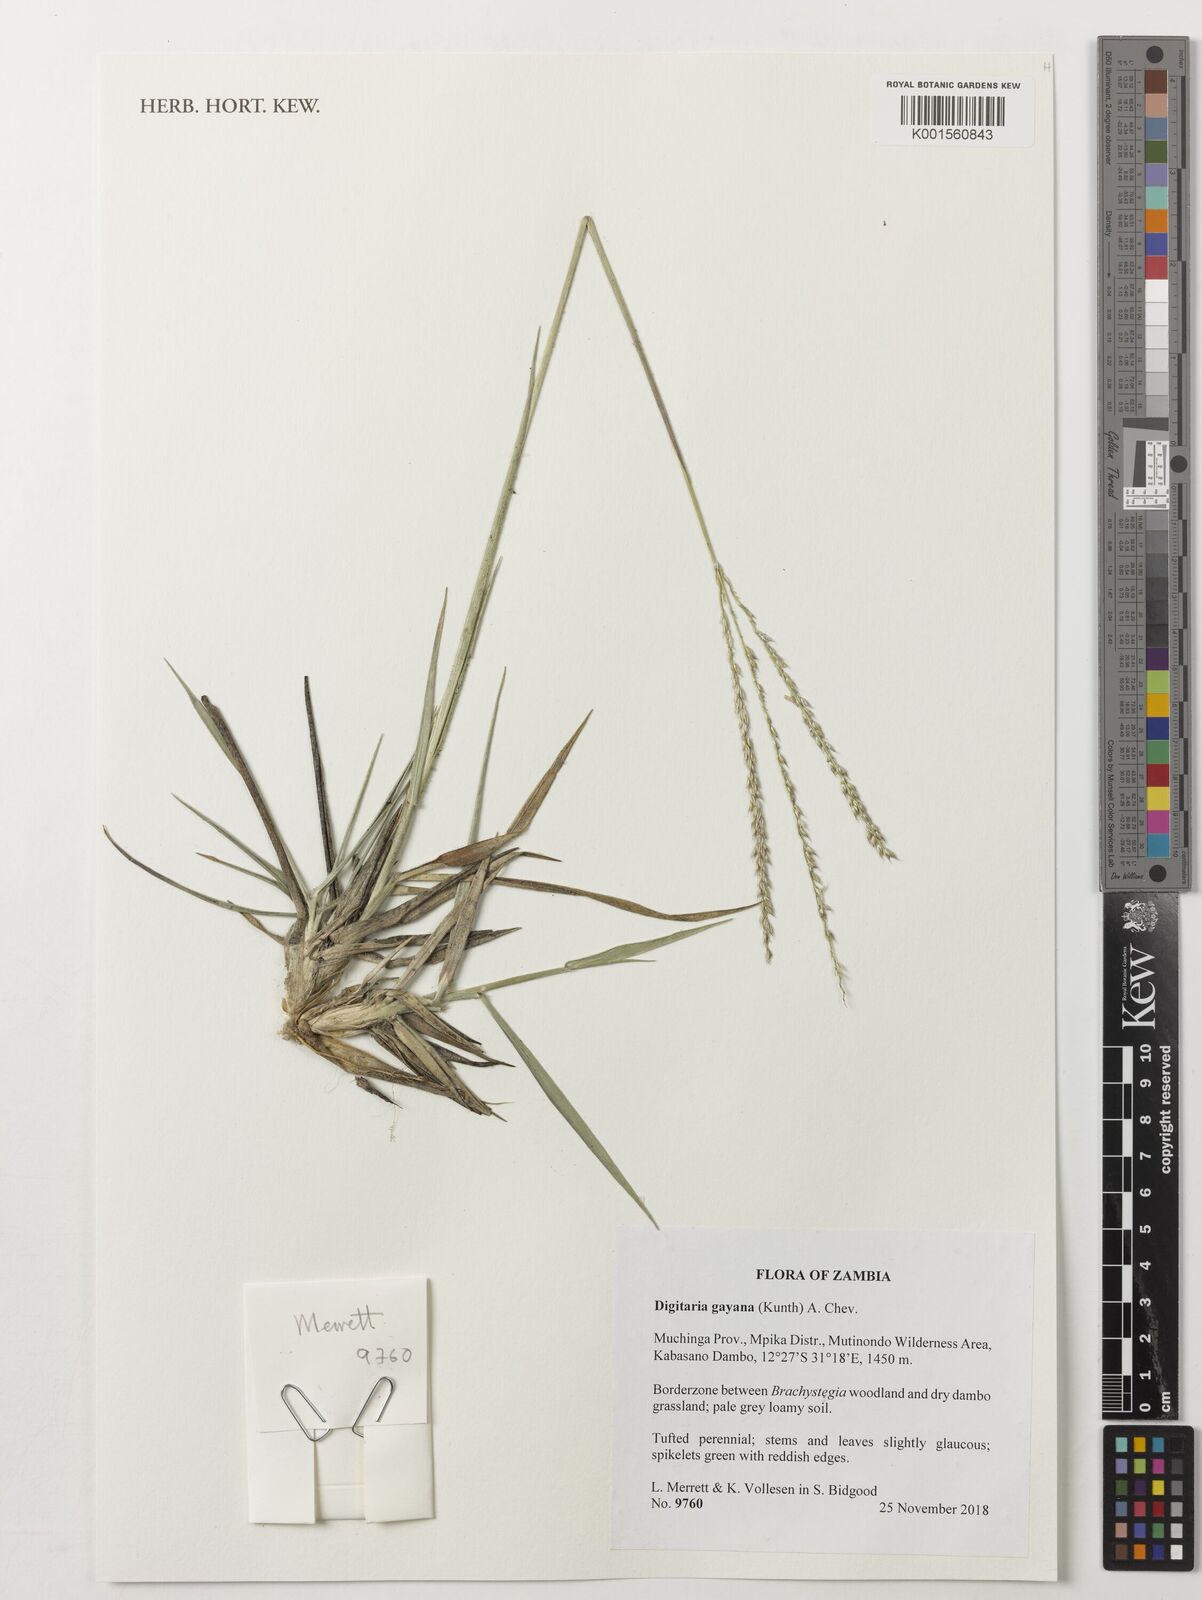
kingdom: Plantae
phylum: Tracheophyta
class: Liliopsida
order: Poales
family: Poaceae
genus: Digitaria
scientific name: Digitaria gayana
